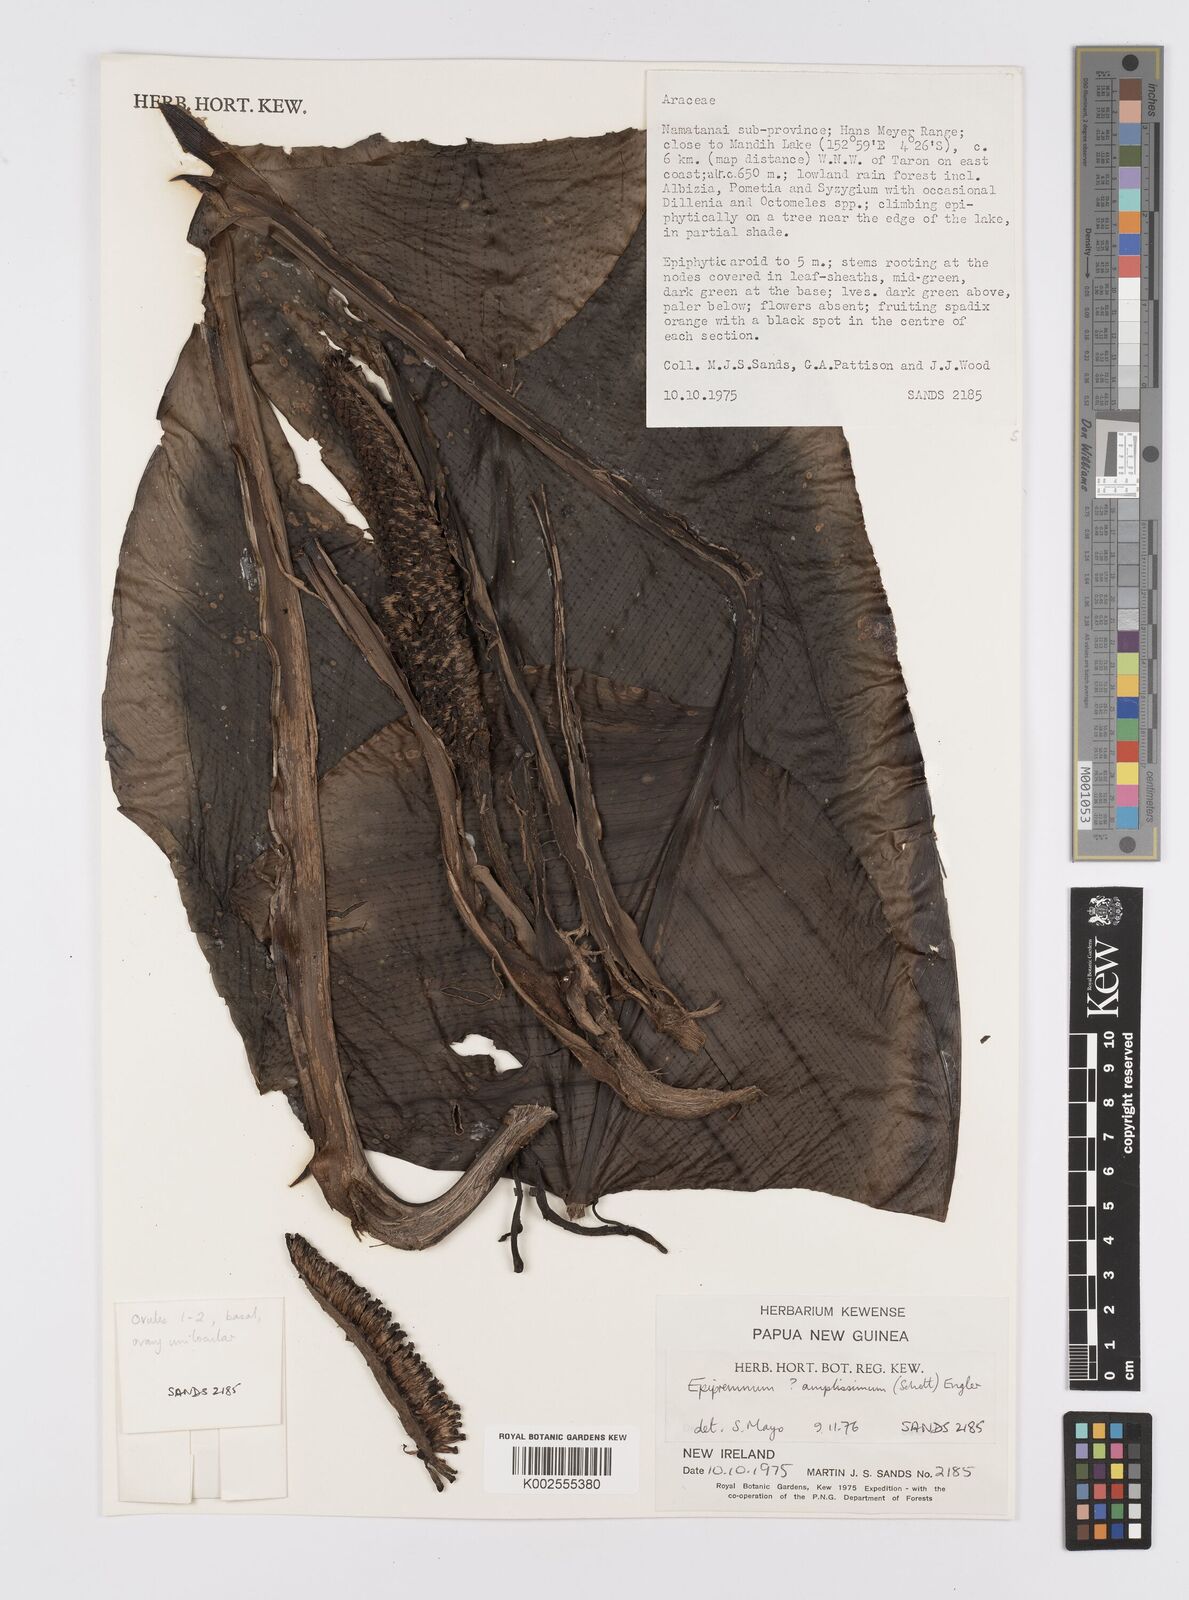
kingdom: Plantae
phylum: Tracheophyta
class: Liliopsida
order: Alismatales
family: Araceae
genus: Epipremnum
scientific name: Epipremnum amplissimum
